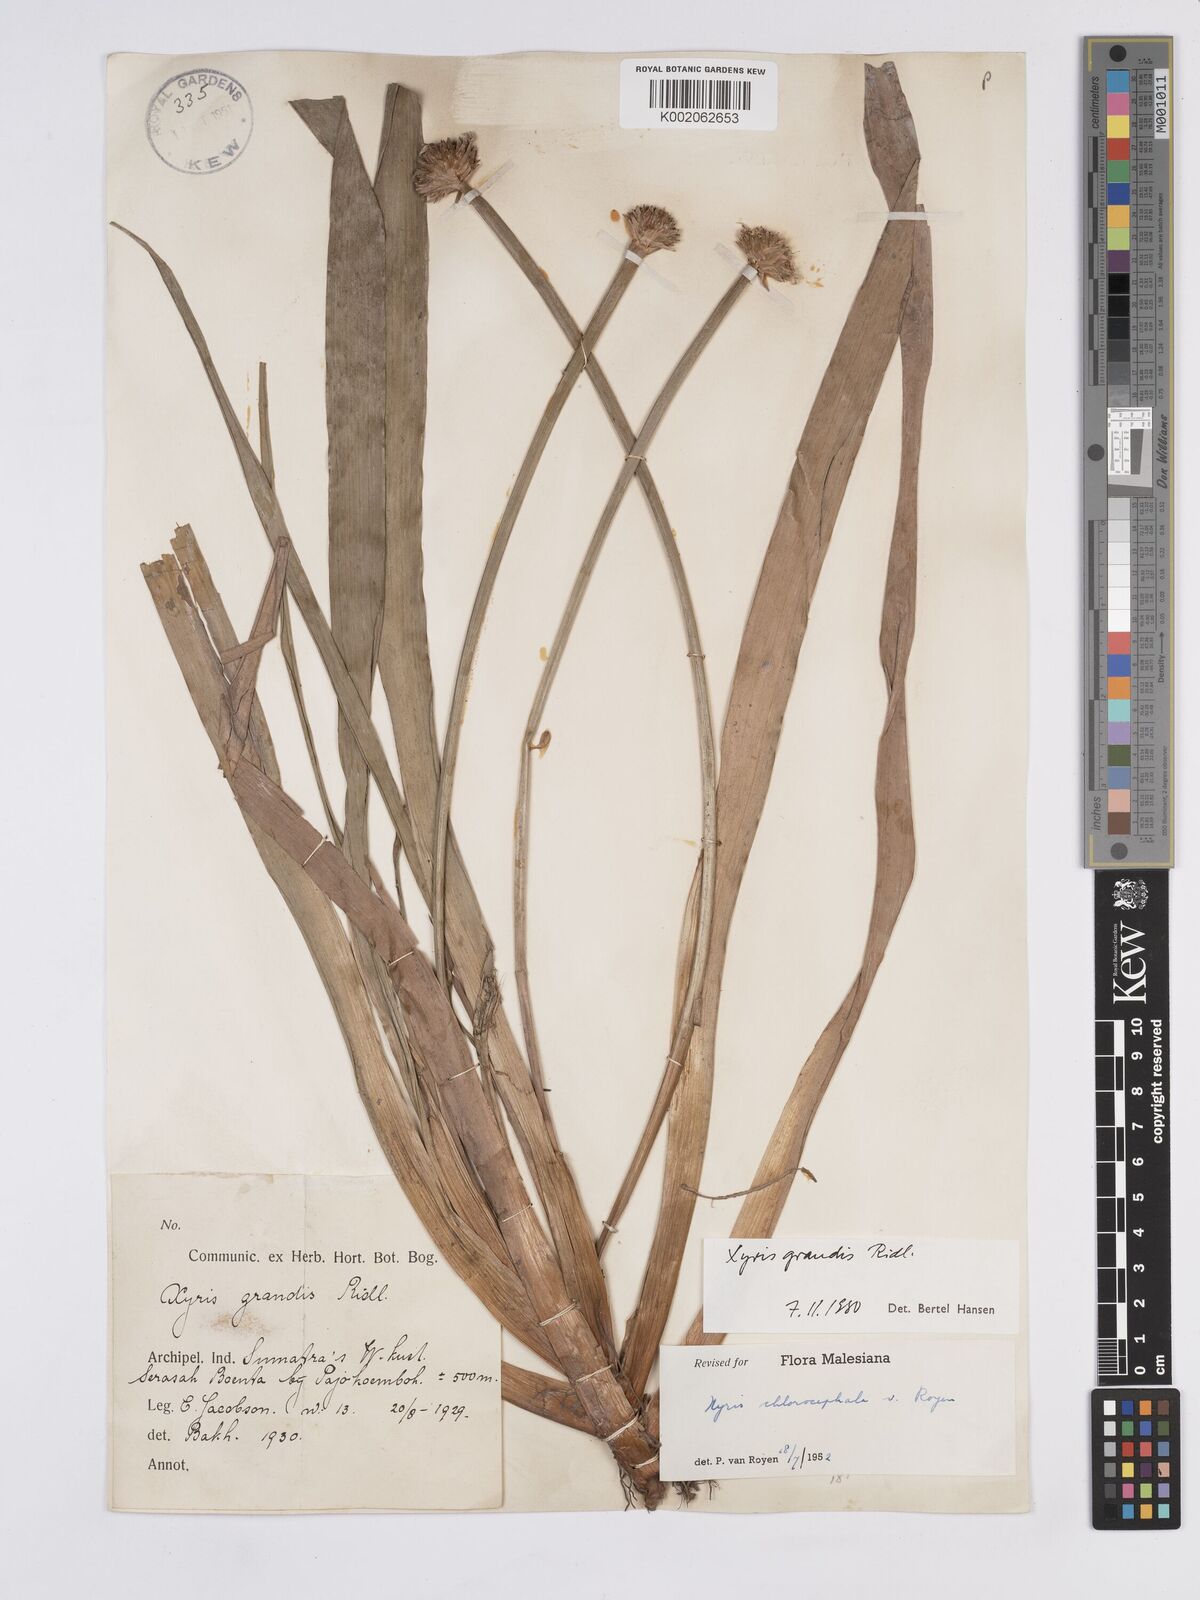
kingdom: Plantae
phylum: Tracheophyta
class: Liliopsida
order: Poales
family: Xyridaceae
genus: Xyris
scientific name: Xyris grandis
